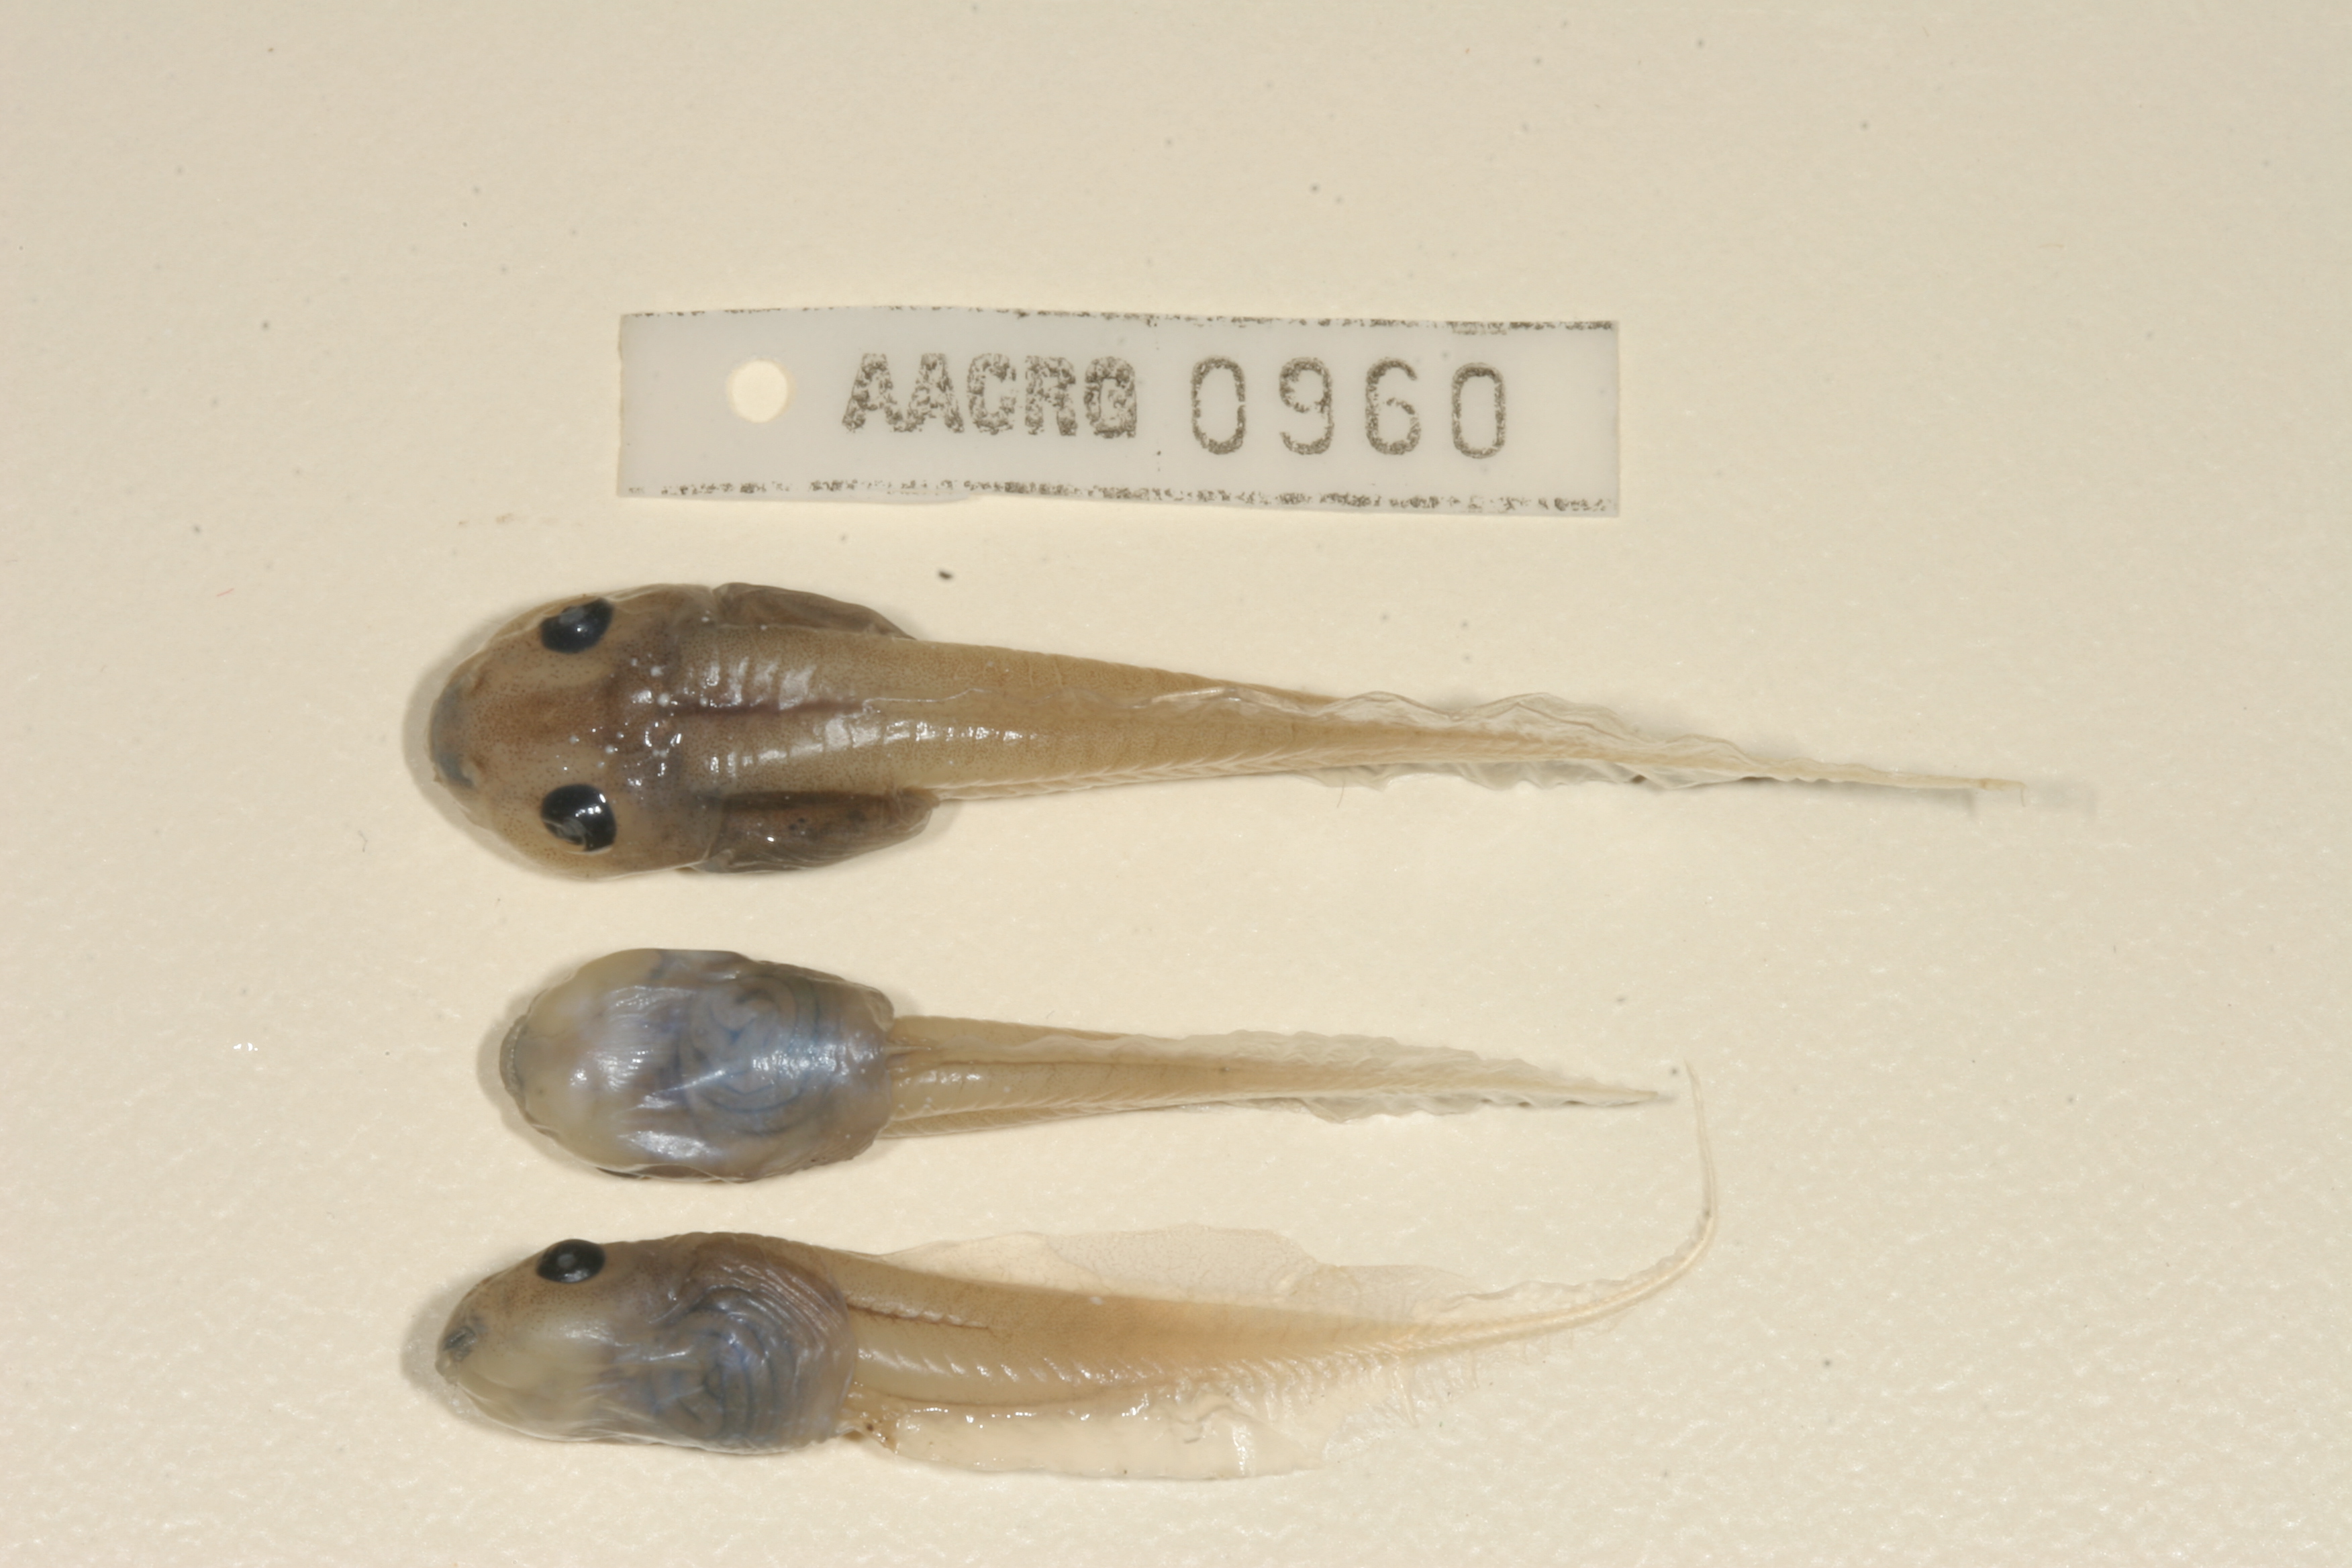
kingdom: Animalia
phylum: Chordata
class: Amphibia
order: Anura
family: Ptychadenidae
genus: Hildebrandtia
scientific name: Hildebrandtia ornata
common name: Ornate frog
